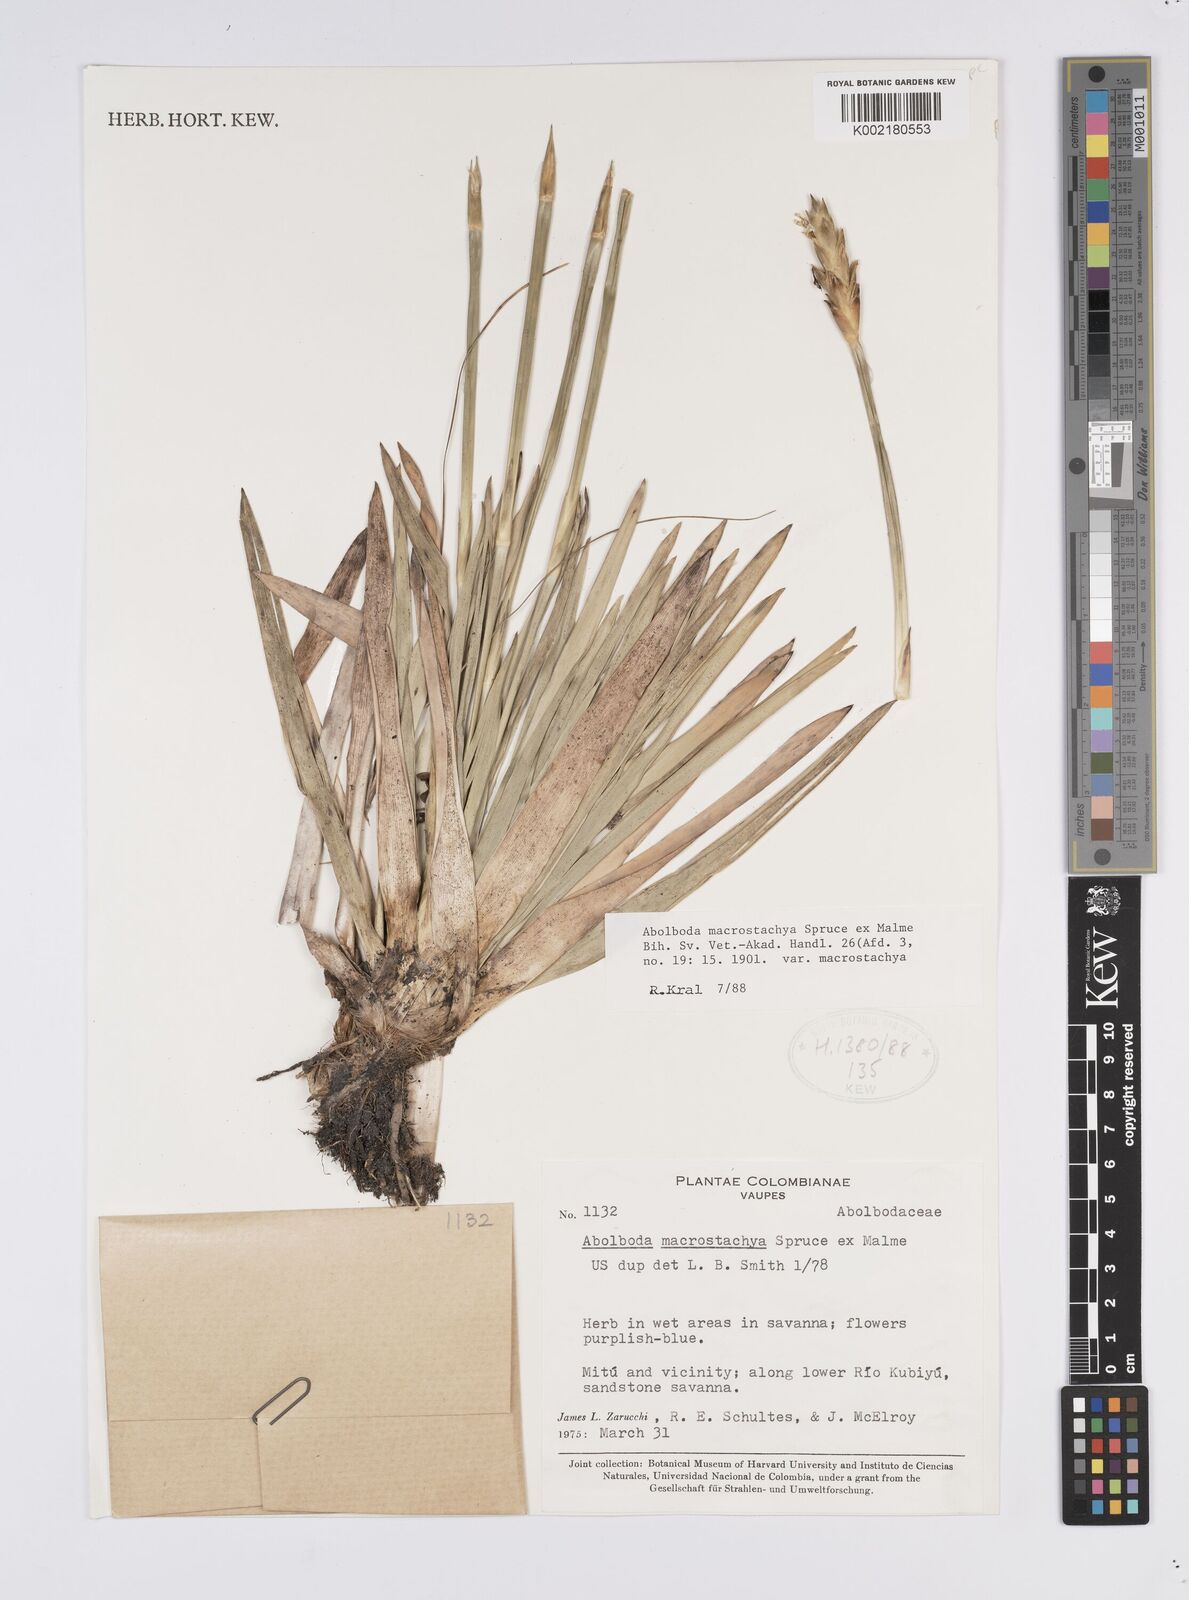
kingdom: Plantae
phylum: Tracheophyta
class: Liliopsida
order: Poales
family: Xyridaceae
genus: Abolboda
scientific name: Abolboda macrostachya
